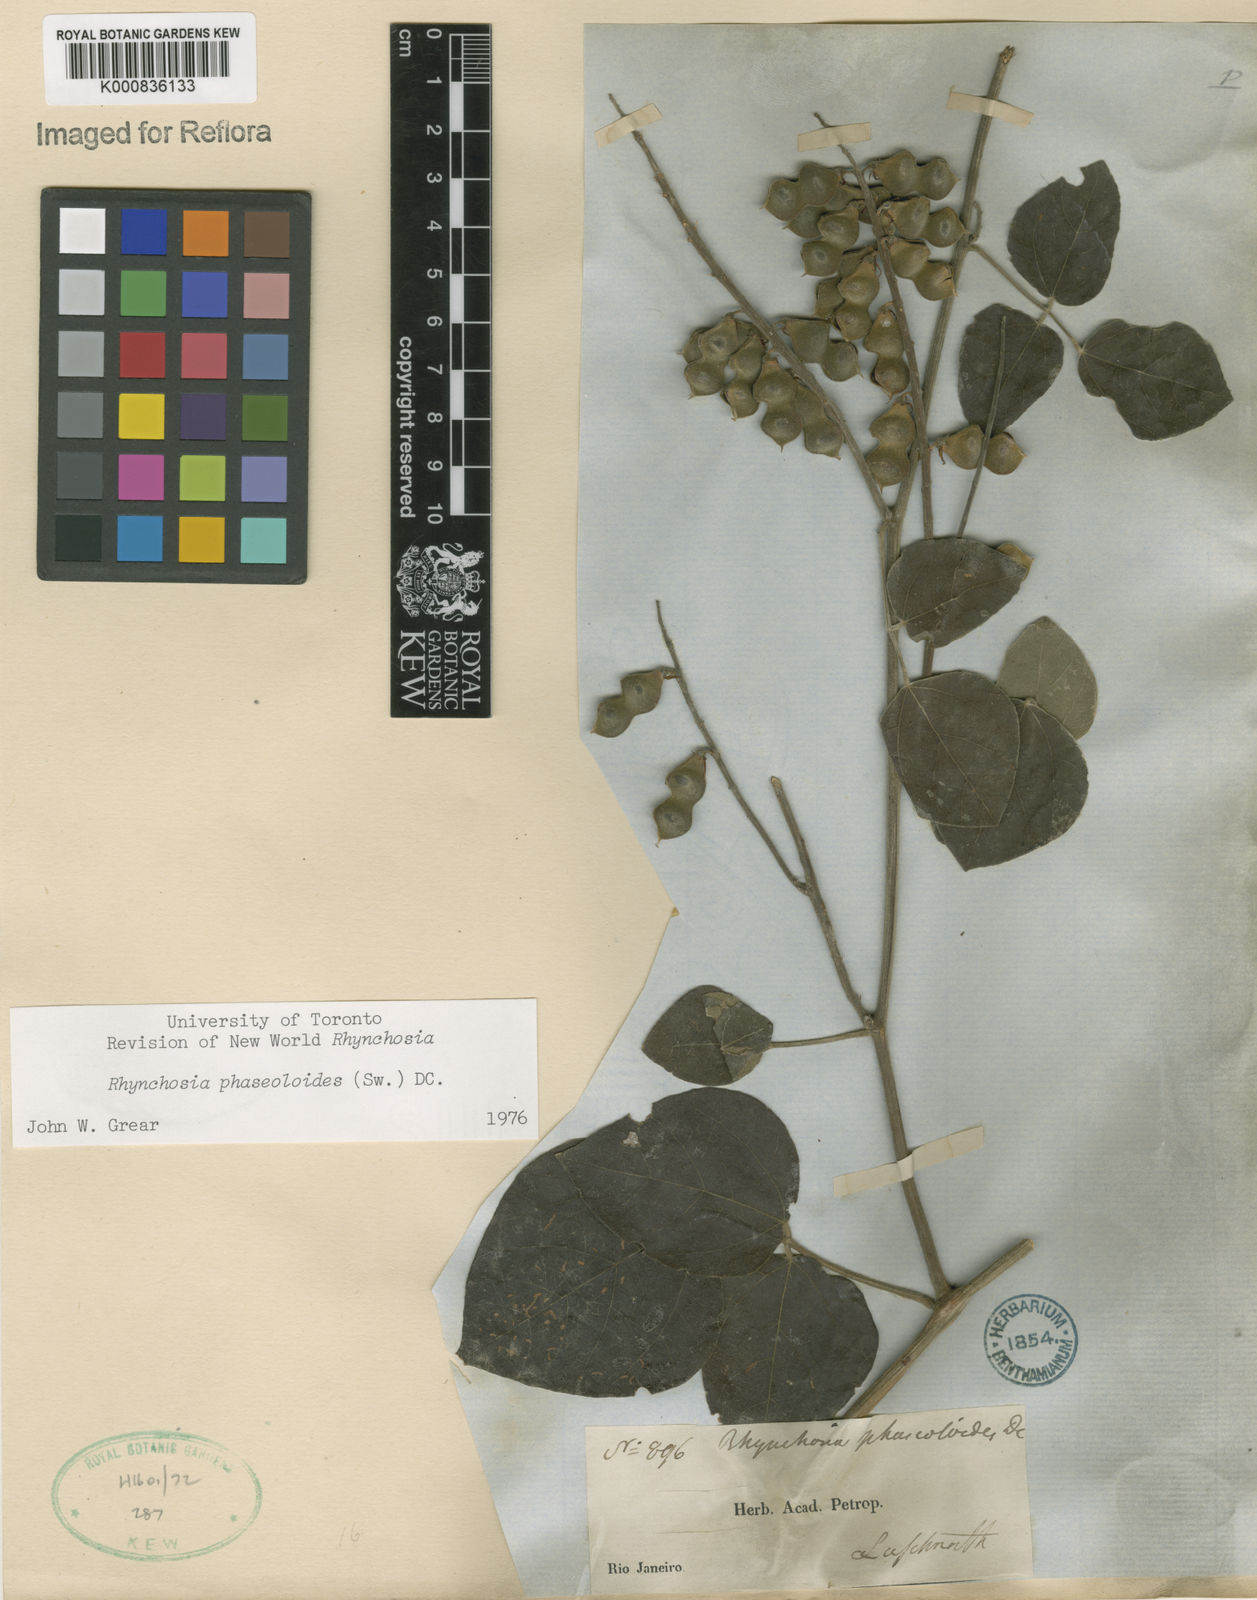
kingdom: Plantae
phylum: Tracheophyta
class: Magnoliopsida
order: Fabales
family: Fabaceae
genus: Rhynchosia
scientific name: Rhynchosia phaseoloides
